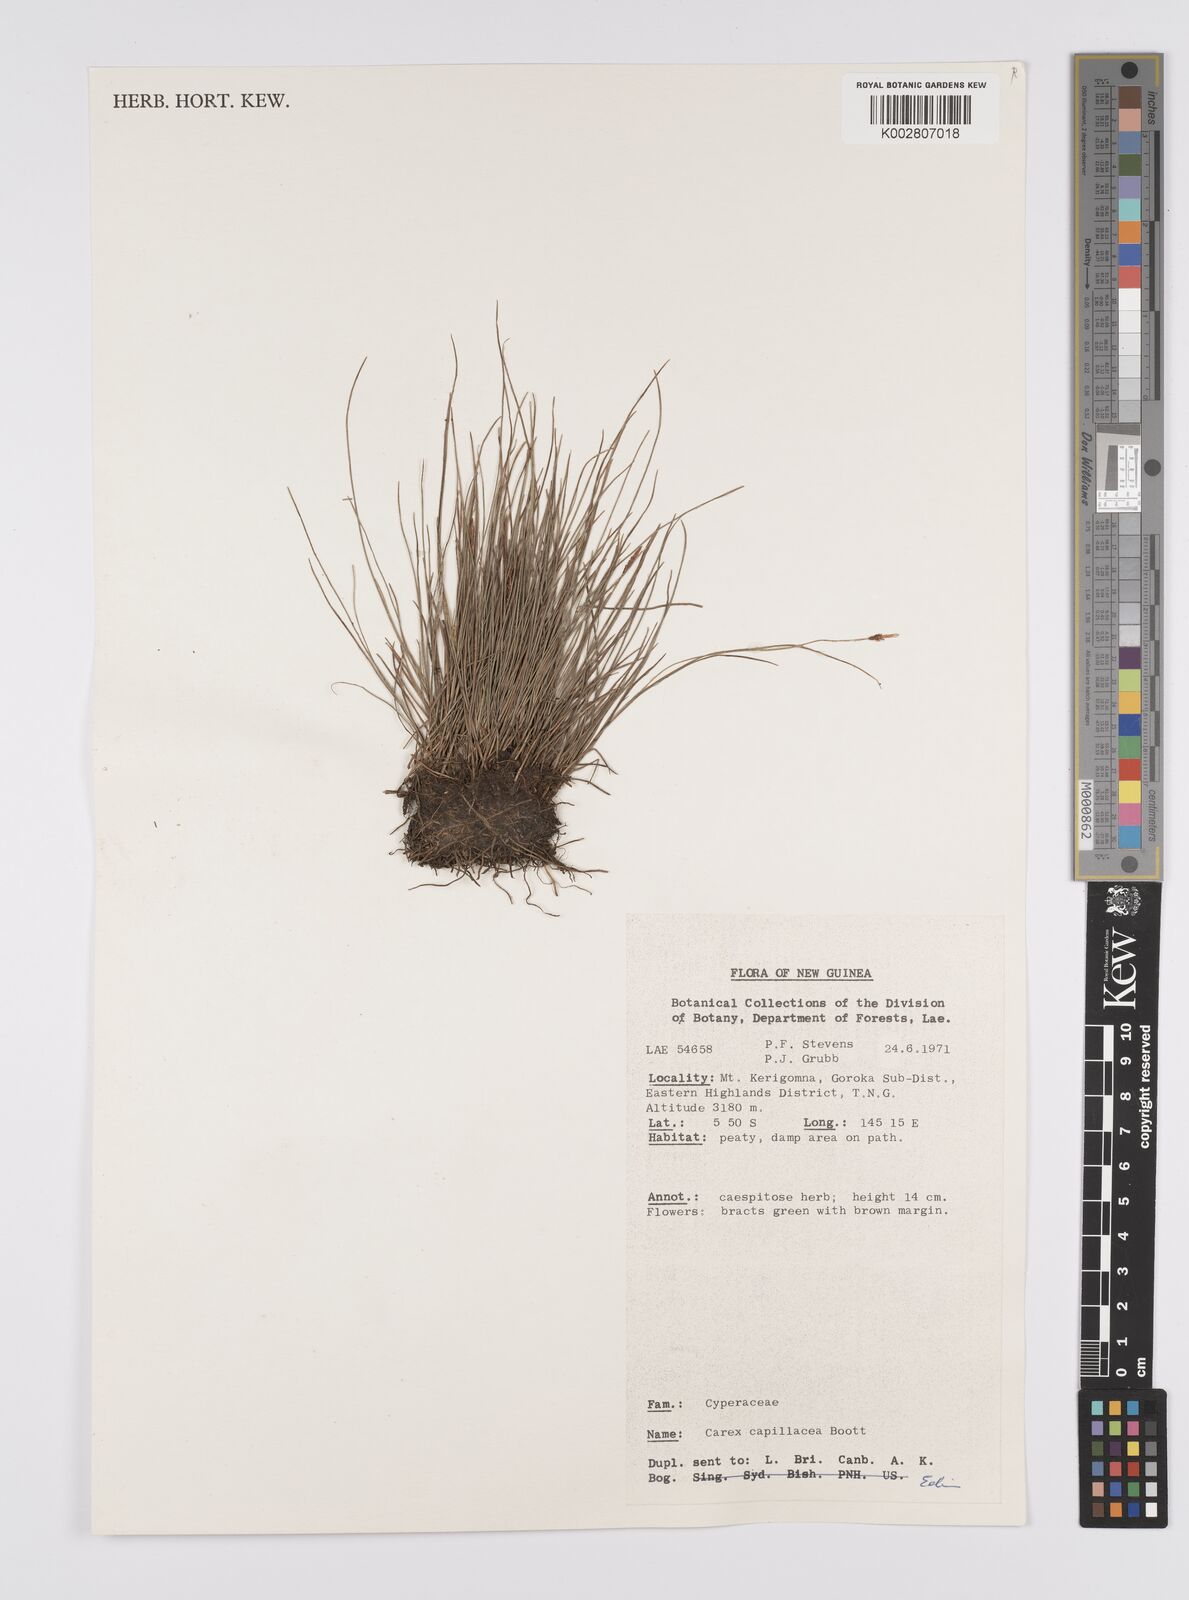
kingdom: Plantae
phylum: Tracheophyta
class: Liliopsida
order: Poales
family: Cyperaceae
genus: Carex
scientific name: Carex capillacea
